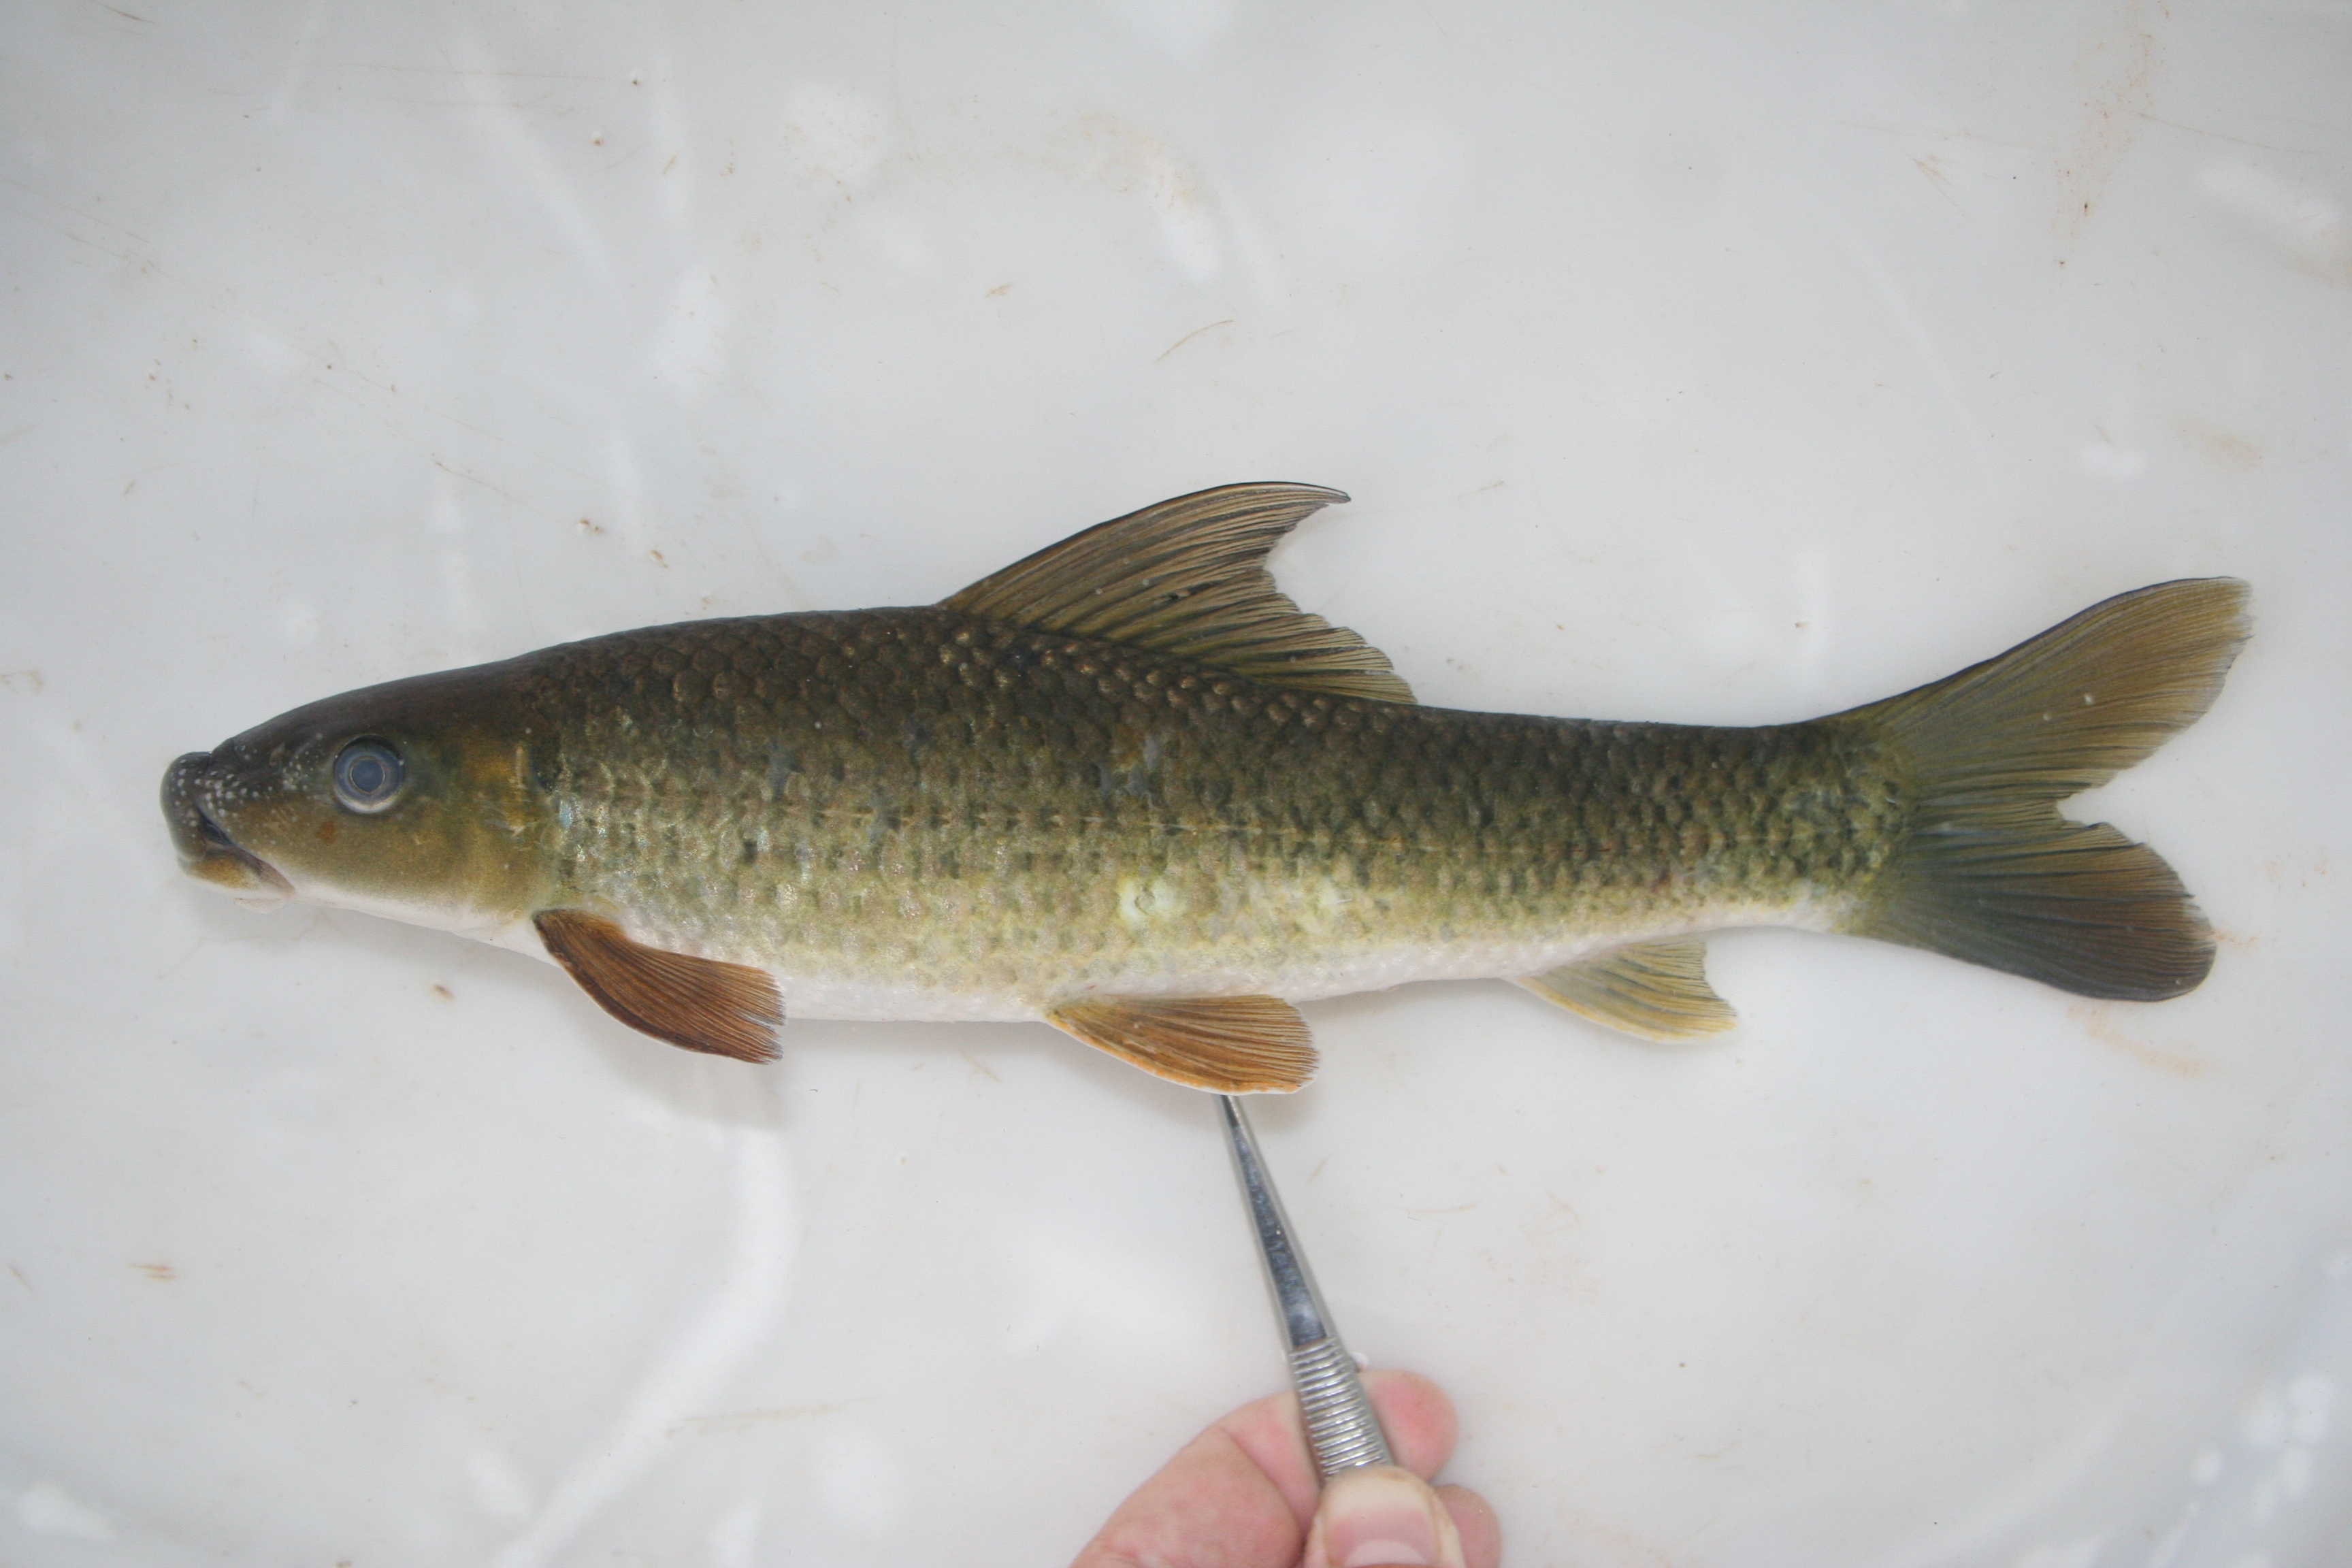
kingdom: Animalia
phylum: Chordata
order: Cypriniformes
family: Cyprinidae
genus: Labeo
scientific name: Labeo
